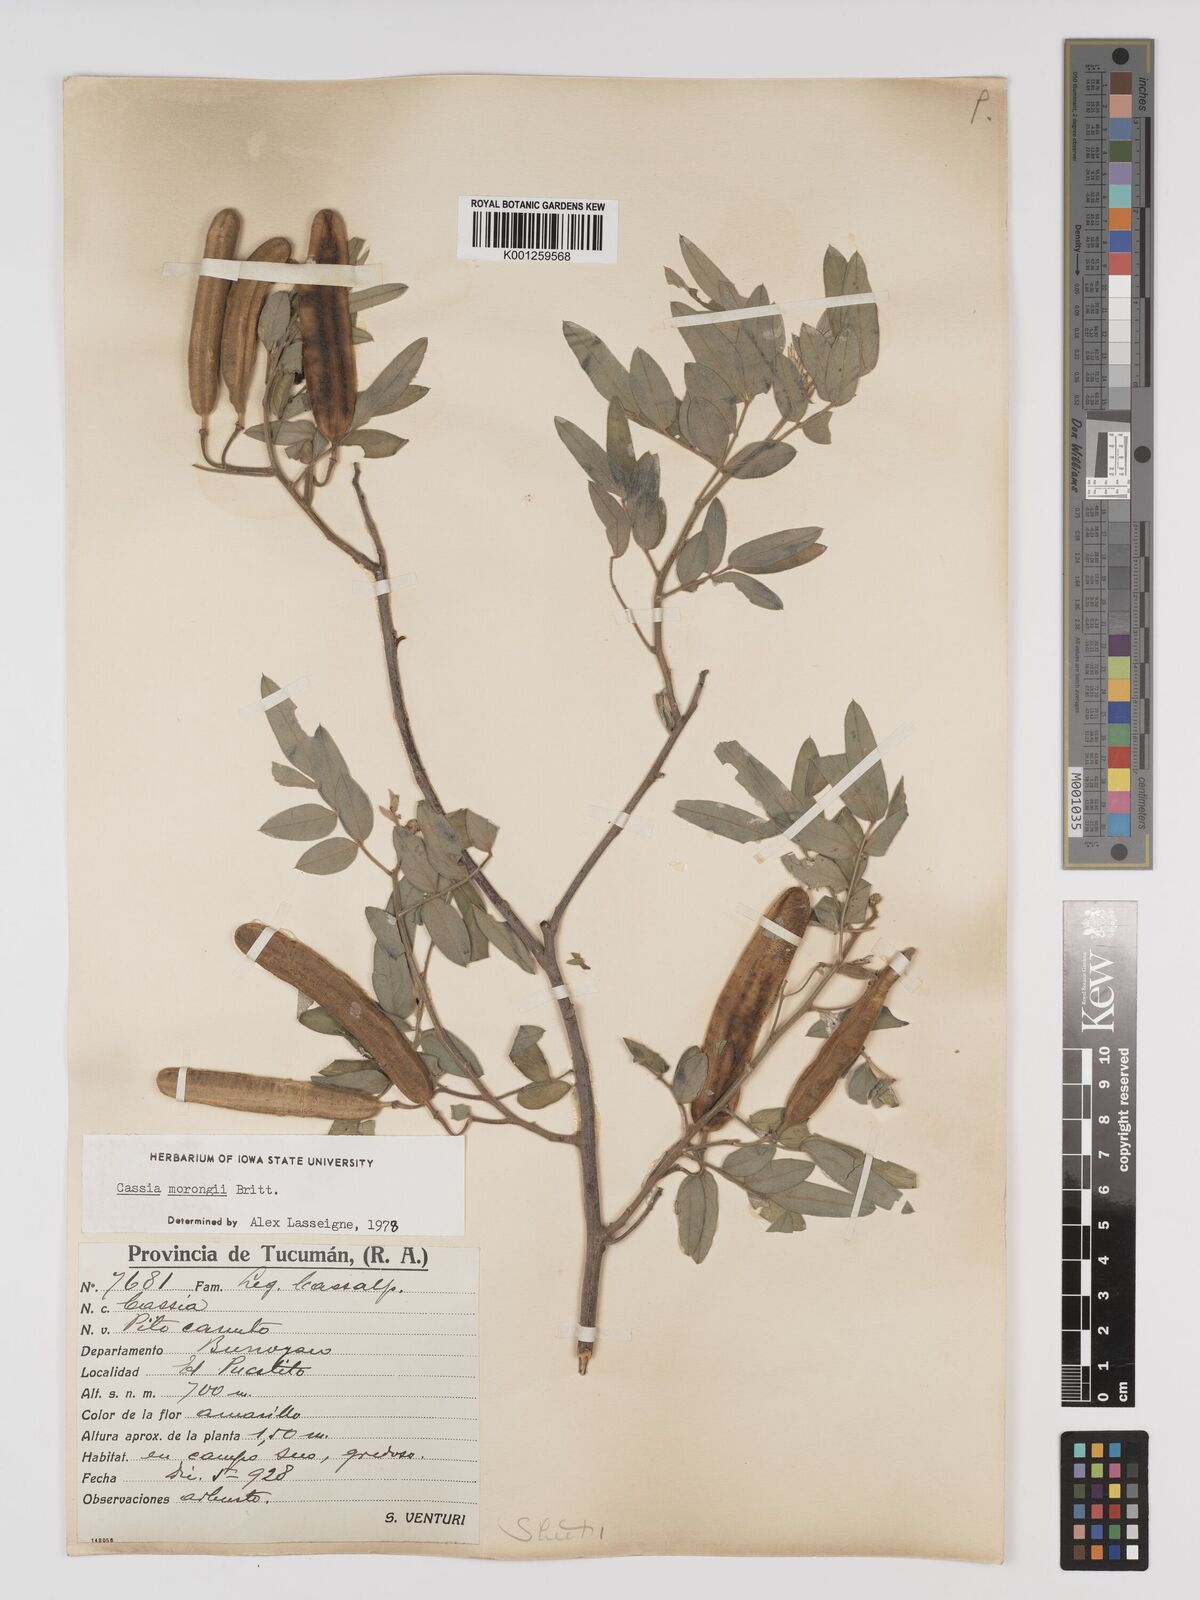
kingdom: Plantae
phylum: Tracheophyta
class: Magnoliopsida
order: Fabales
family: Fabaceae
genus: Senna
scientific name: Senna morongii
